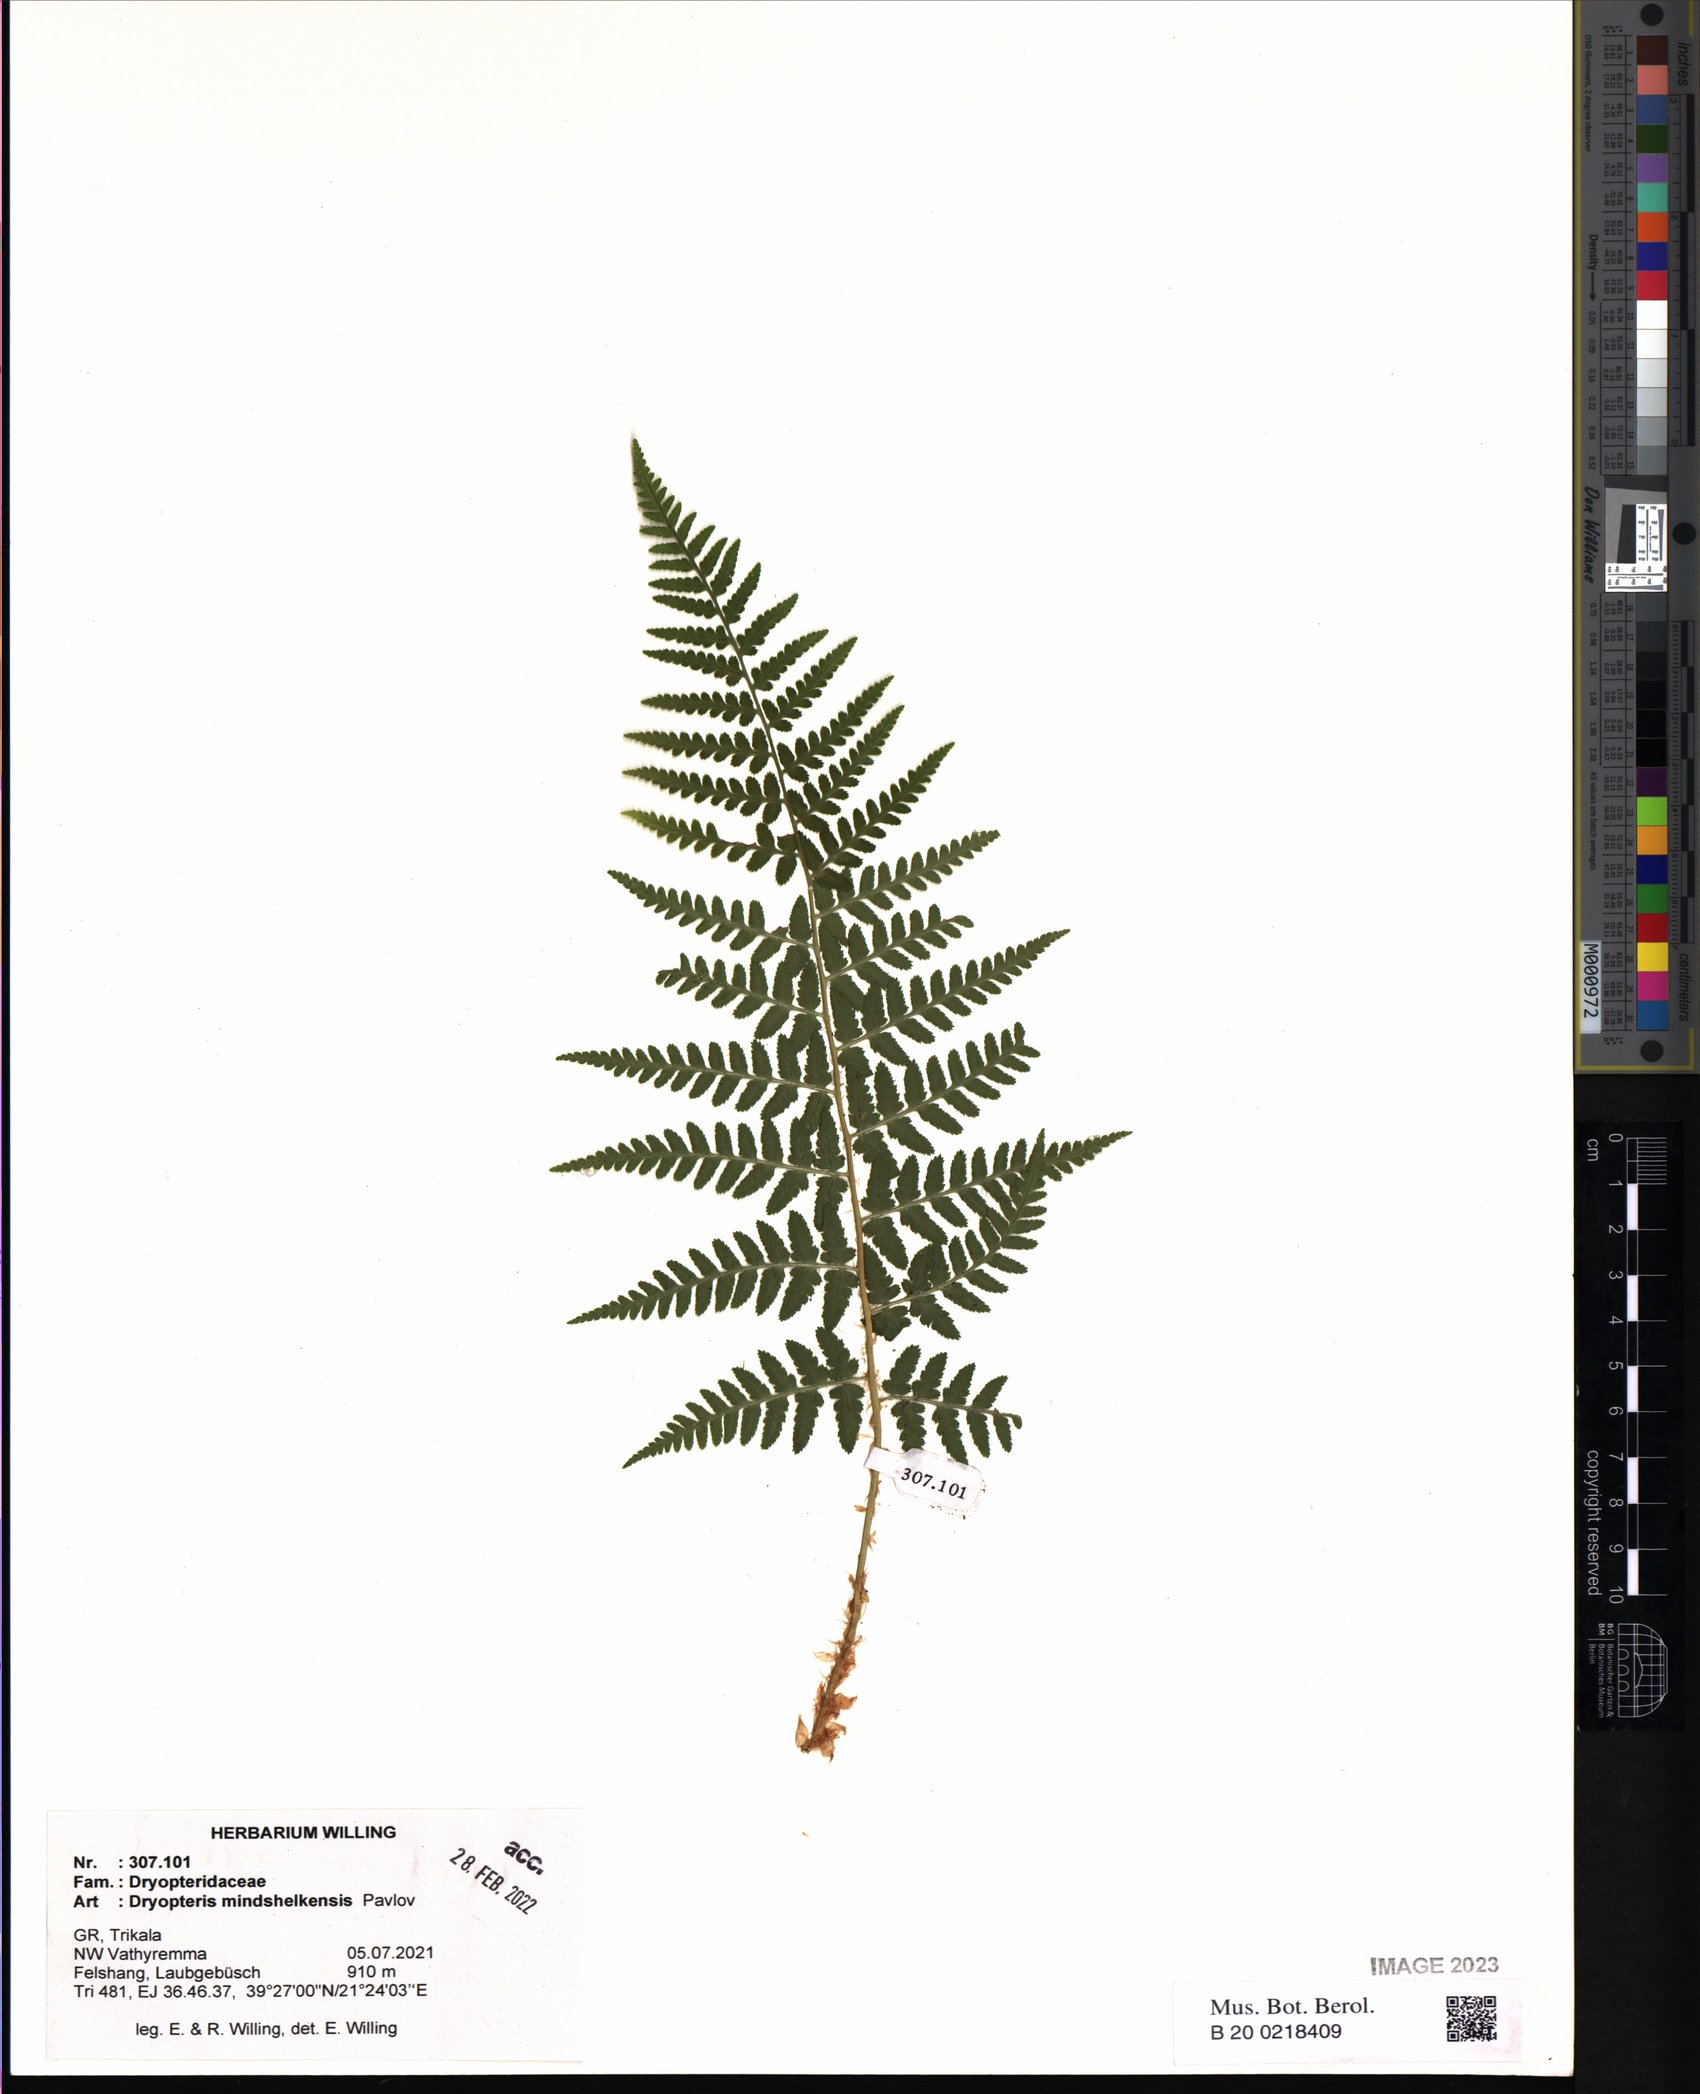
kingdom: Plantae
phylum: Tracheophyta
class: Polypodiopsida
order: Polypodiales
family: Dryopteridaceae
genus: Dryopteris
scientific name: Dryopteris mindshelkensis
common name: Limestone wood fern
